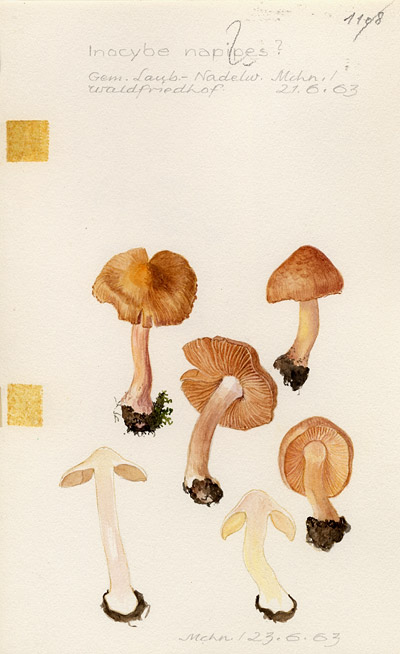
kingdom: Fungi
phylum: Basidiomycota
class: Agaricomycetes
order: Agaricales
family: Inocybaceae
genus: Inocybe
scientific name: Inocybe napipes
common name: Bulbous fibrecap
